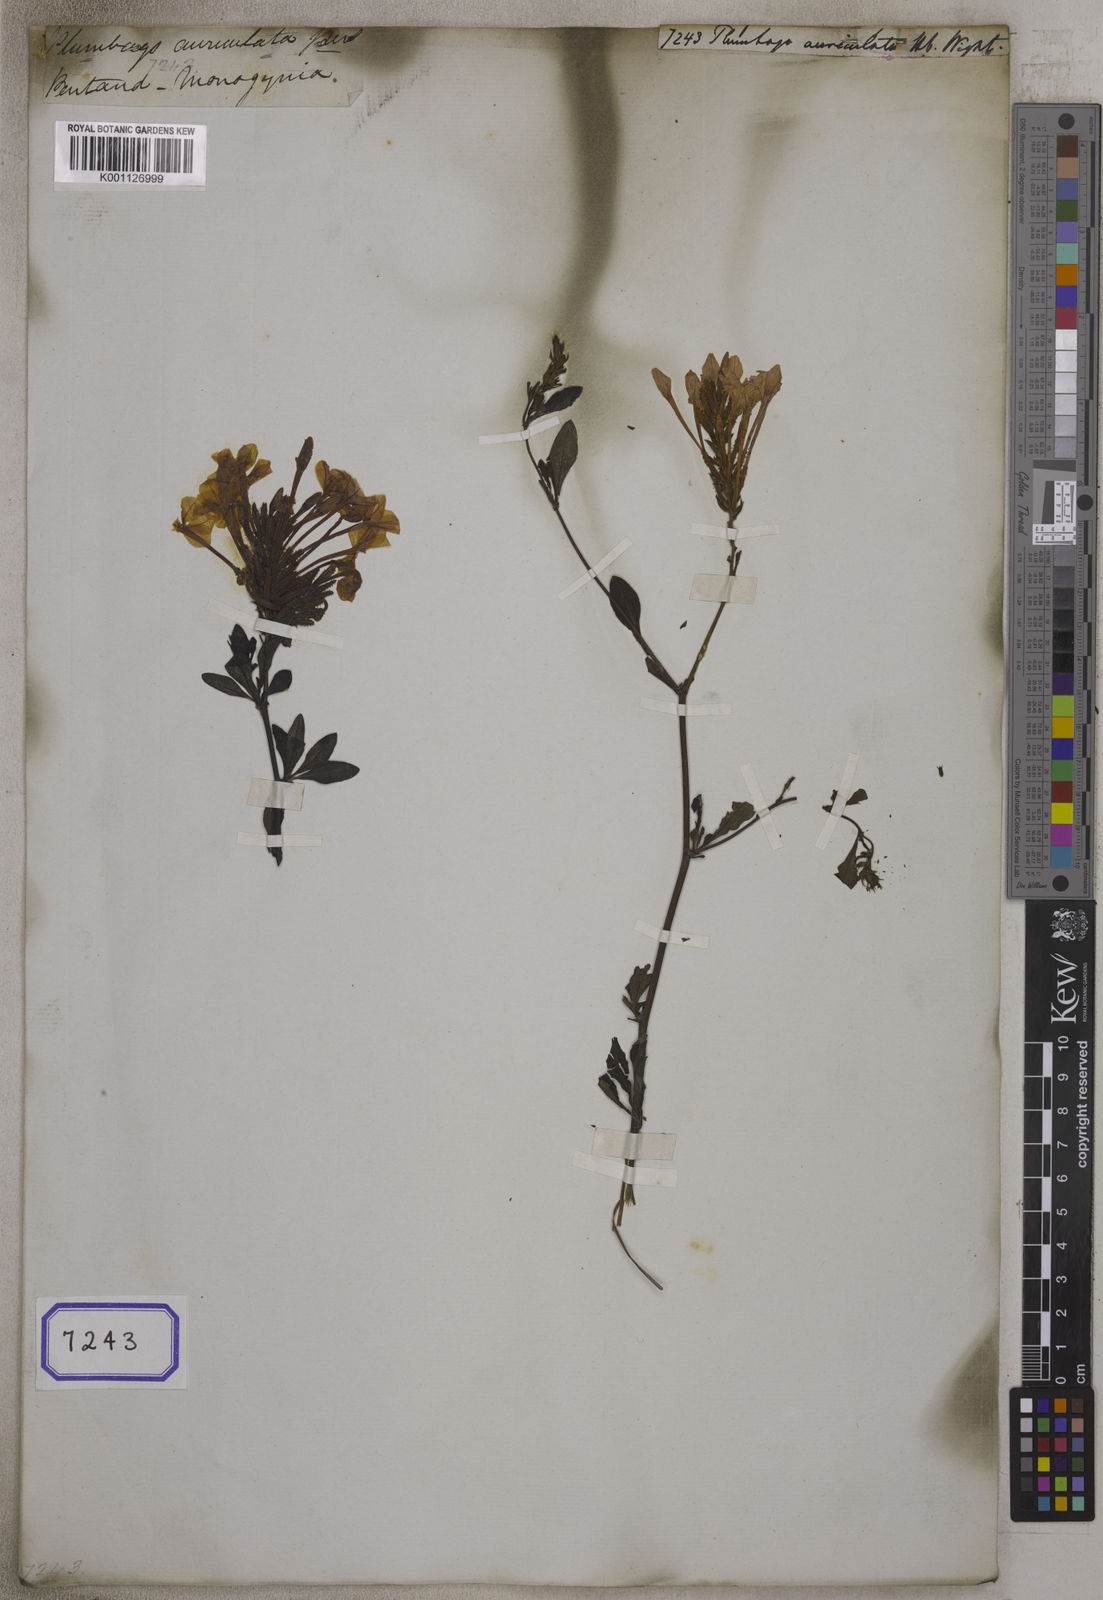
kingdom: Plantae
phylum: Tracheophyta
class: Magnoliopsida
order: Caryophyllales
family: Plumbaginaceae
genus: Plumbago
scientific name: Plumbago auriculata
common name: Cape leadwort
